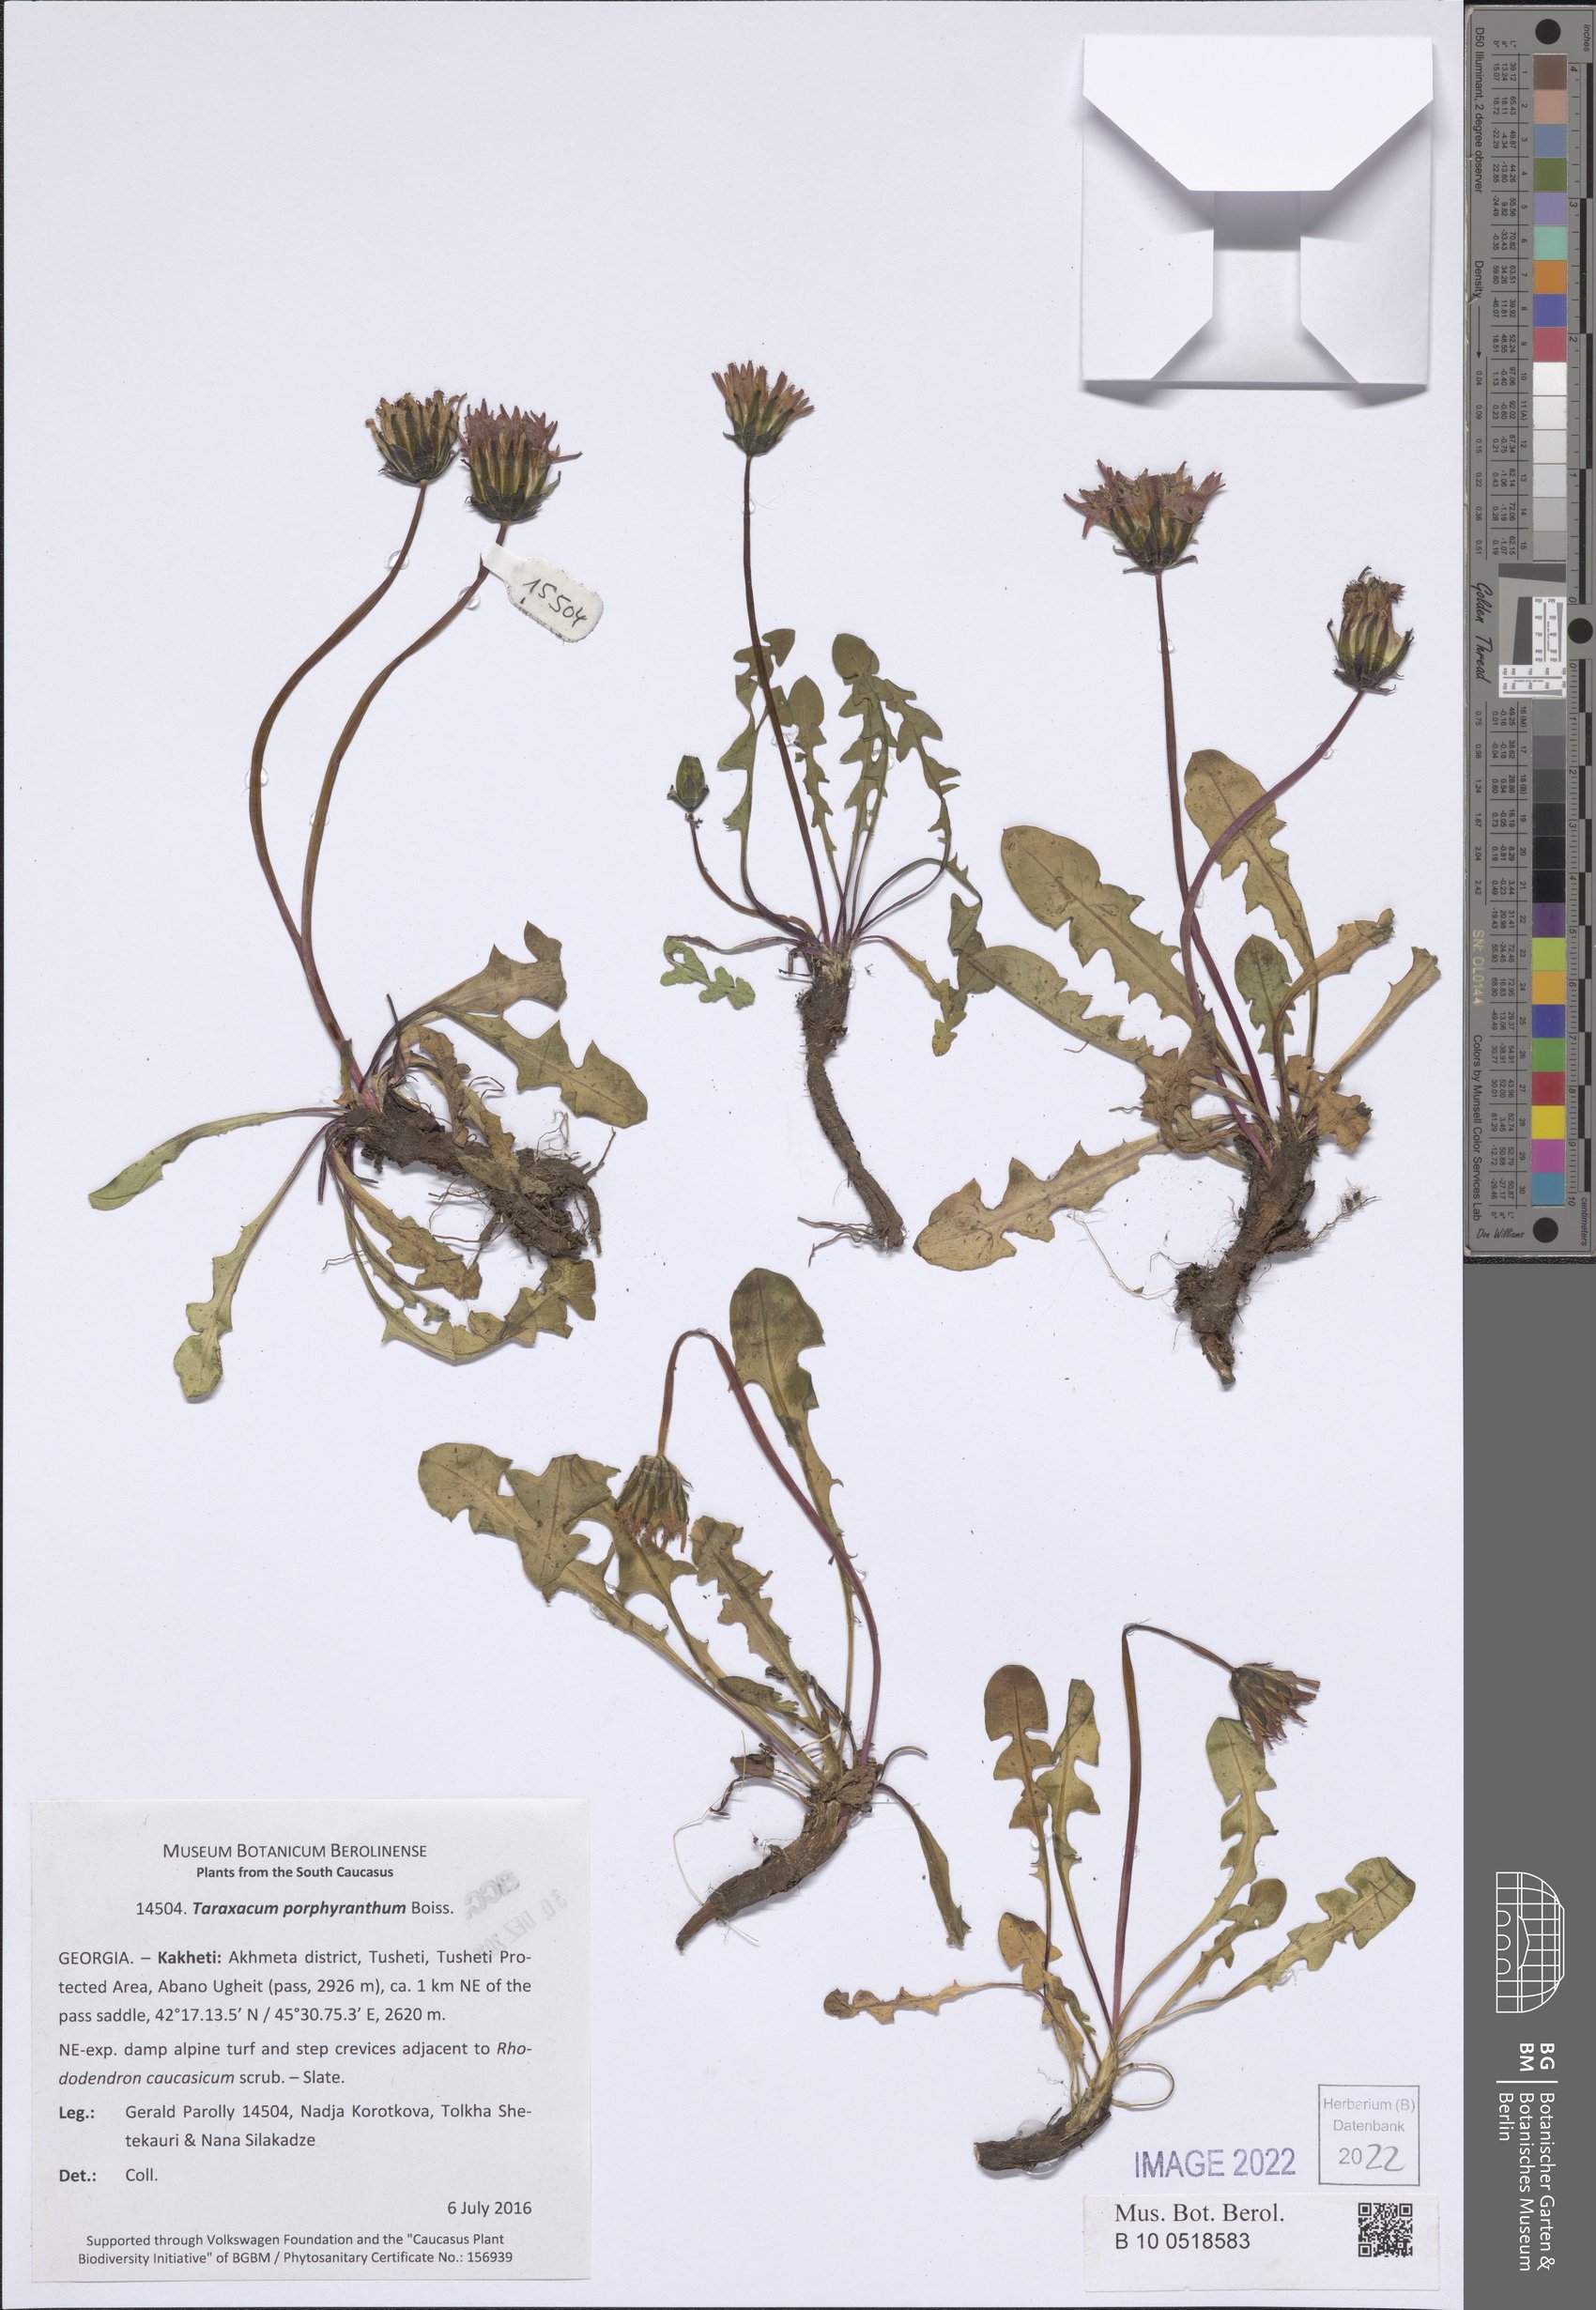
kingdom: Plantae
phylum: Tracheophyta
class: Magnoliopsida
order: Asterales
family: Asteraceae
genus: Taraxacum
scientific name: Taraxacum porphyranthum
